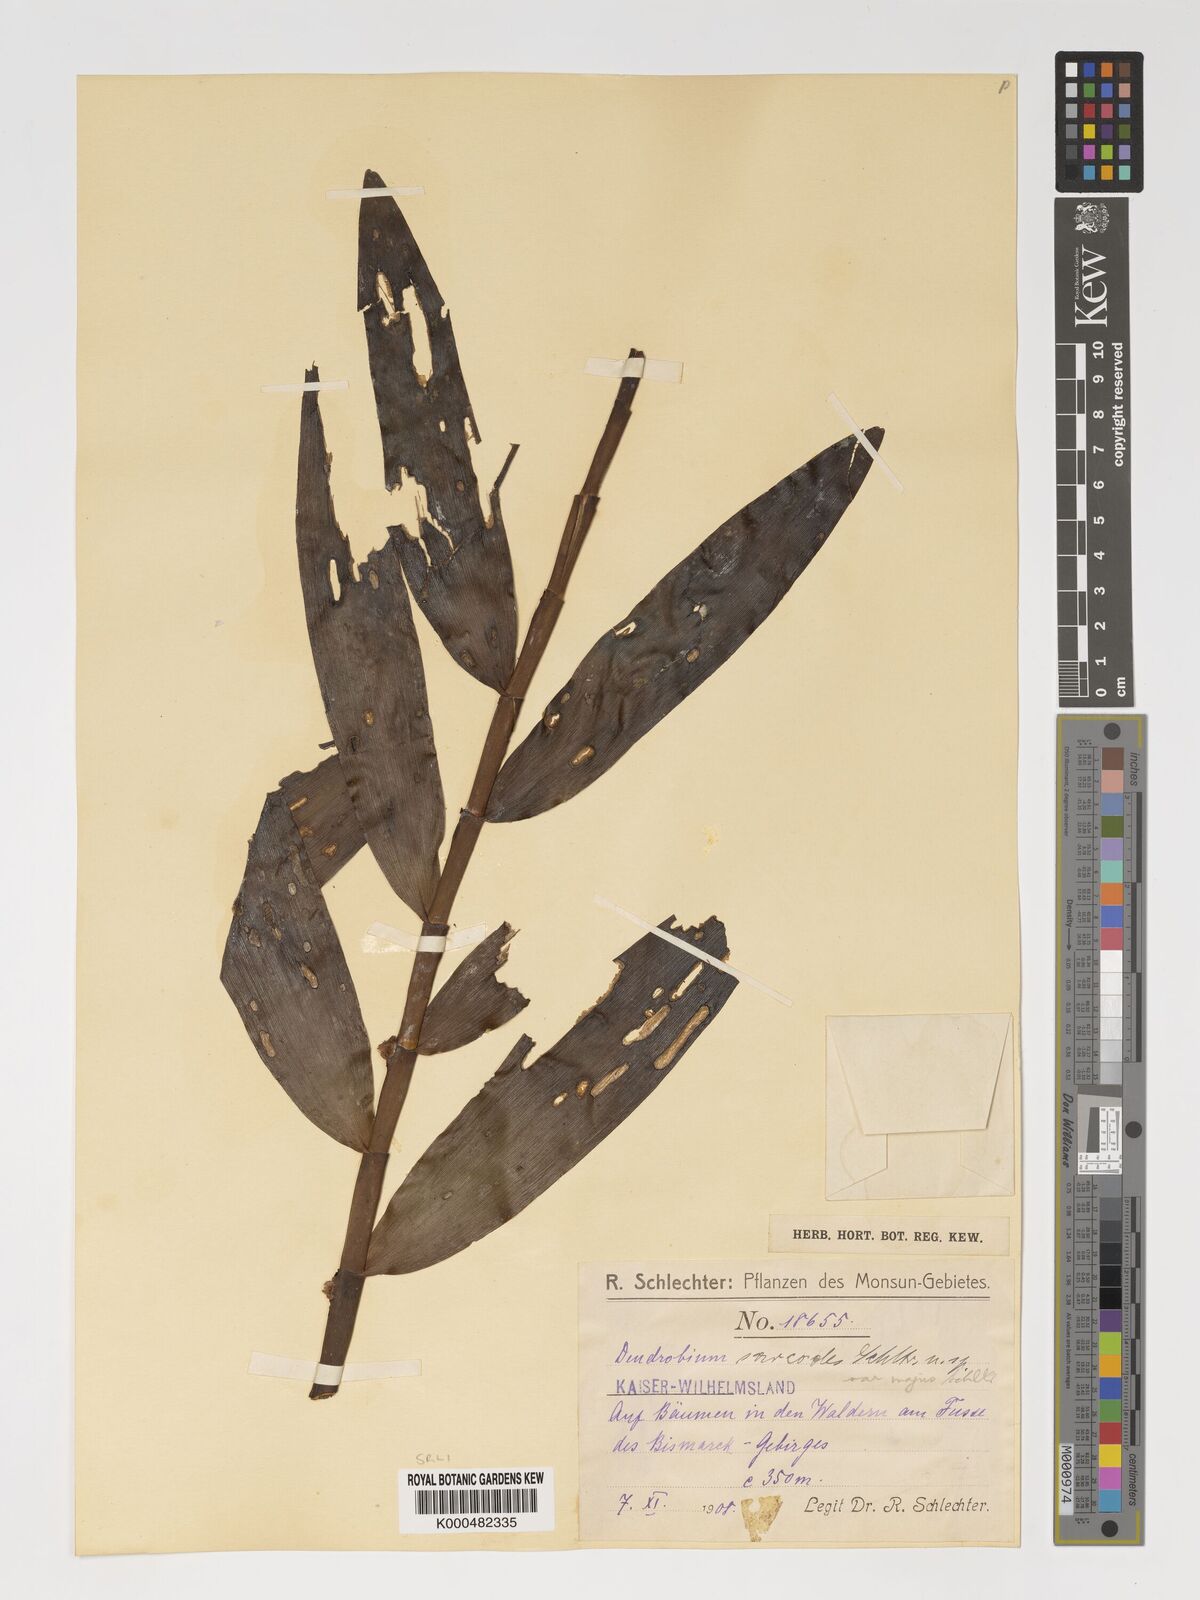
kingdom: Plantae
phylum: Tracheophyta
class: Liliopsida
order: Asparagales
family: Orchidaceae
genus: Dendrobium
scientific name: Dendrobium longicaule
